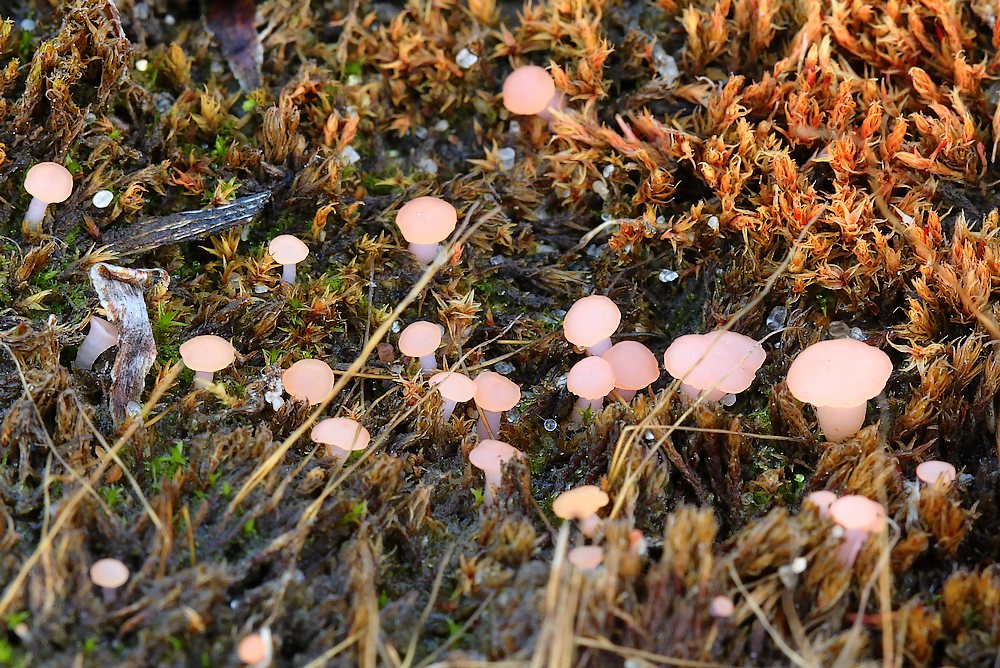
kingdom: Fungi
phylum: Ascomycota
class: Leotiomycetes
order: Helotiales
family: Hyaloscyphaceae
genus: Roseodiscus
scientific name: Roseodiscus formosus
